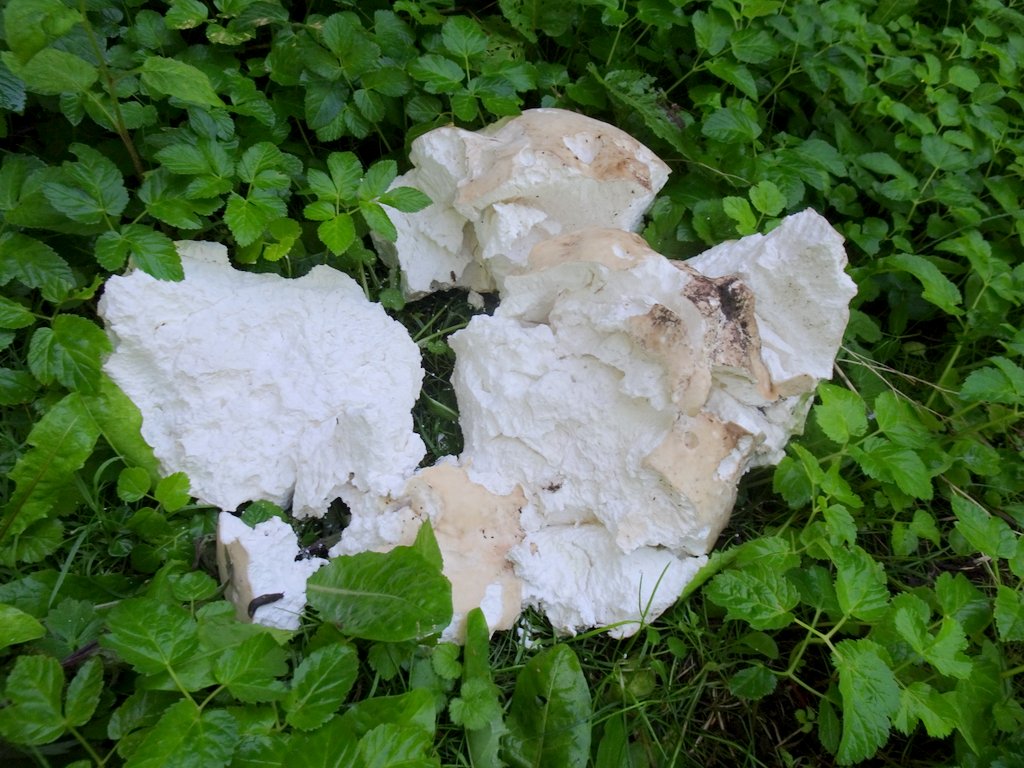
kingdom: Fungi
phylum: Basidiomycota
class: Agaricomycetes
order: Agaricales
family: Lycoperdaceae
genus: Calvatia
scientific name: Calvatia gigantea
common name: kæmpestøvbold
